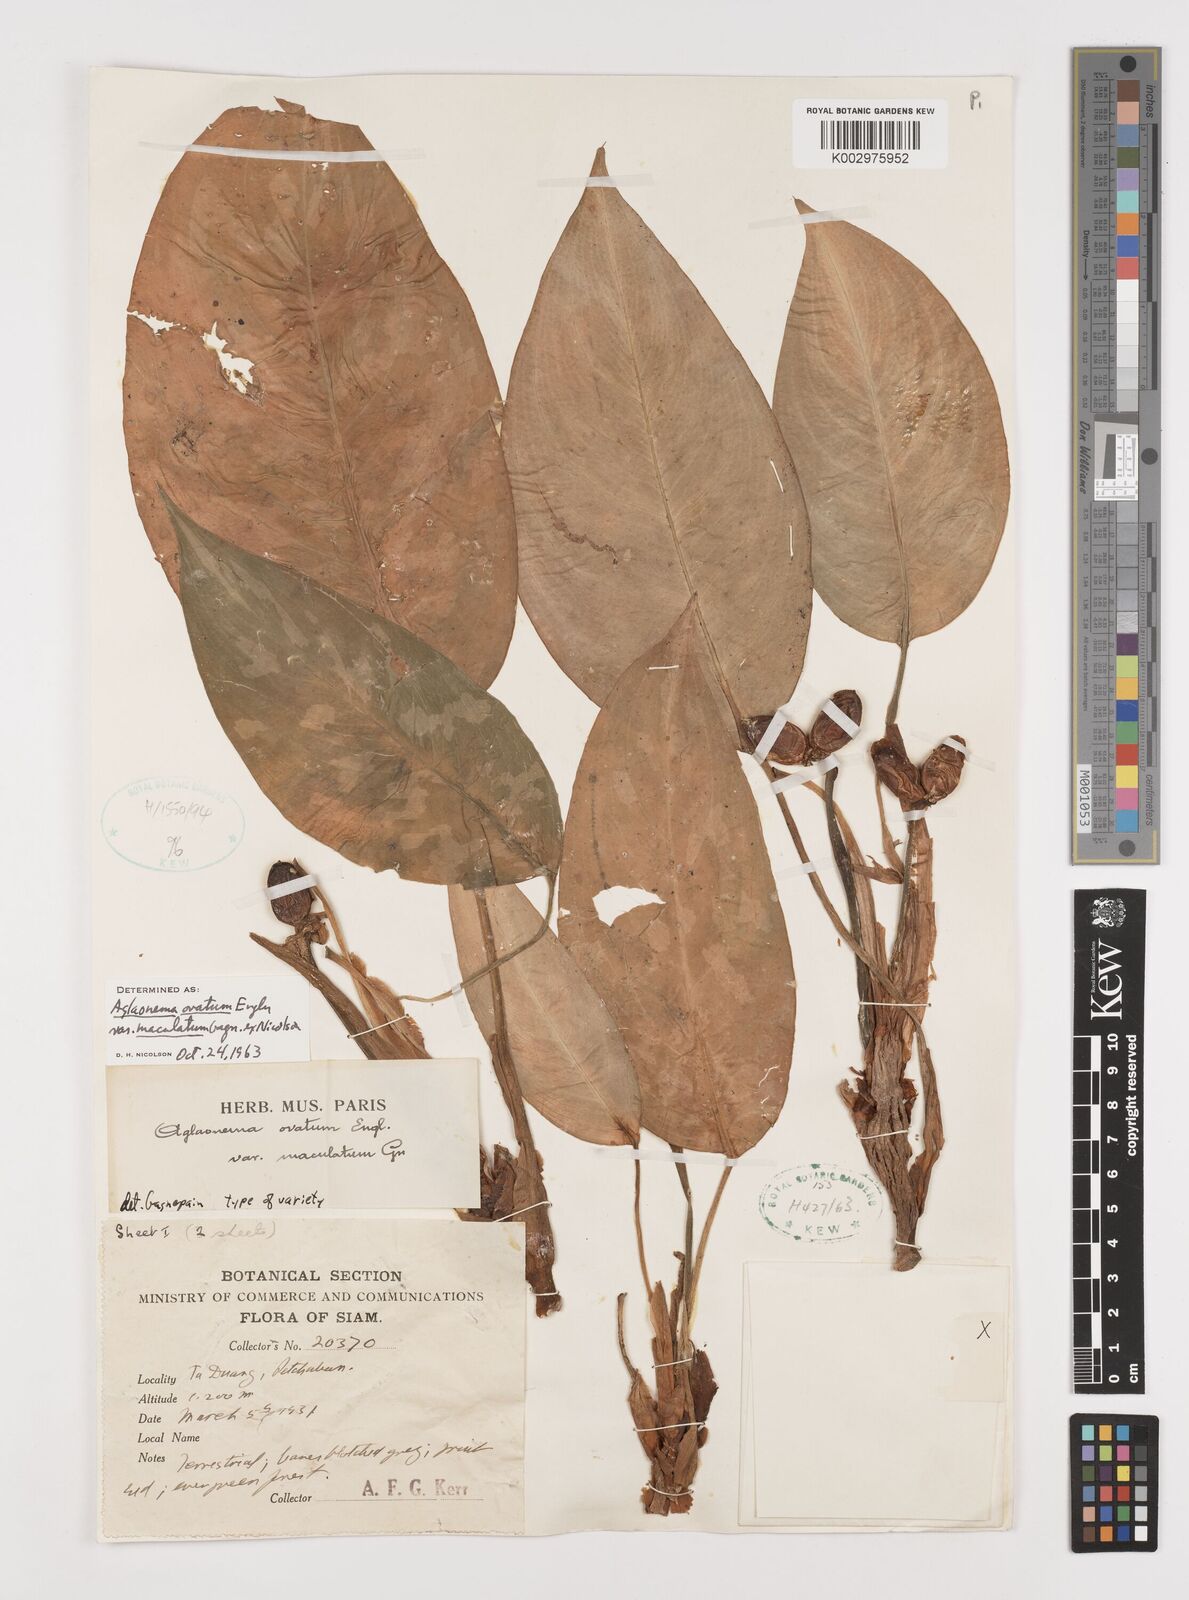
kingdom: Plantae
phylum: Tracheophyta
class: Liliopsida
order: Alismatales
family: Araceae
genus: Aglaonema
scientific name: Aglaonema ovatum
